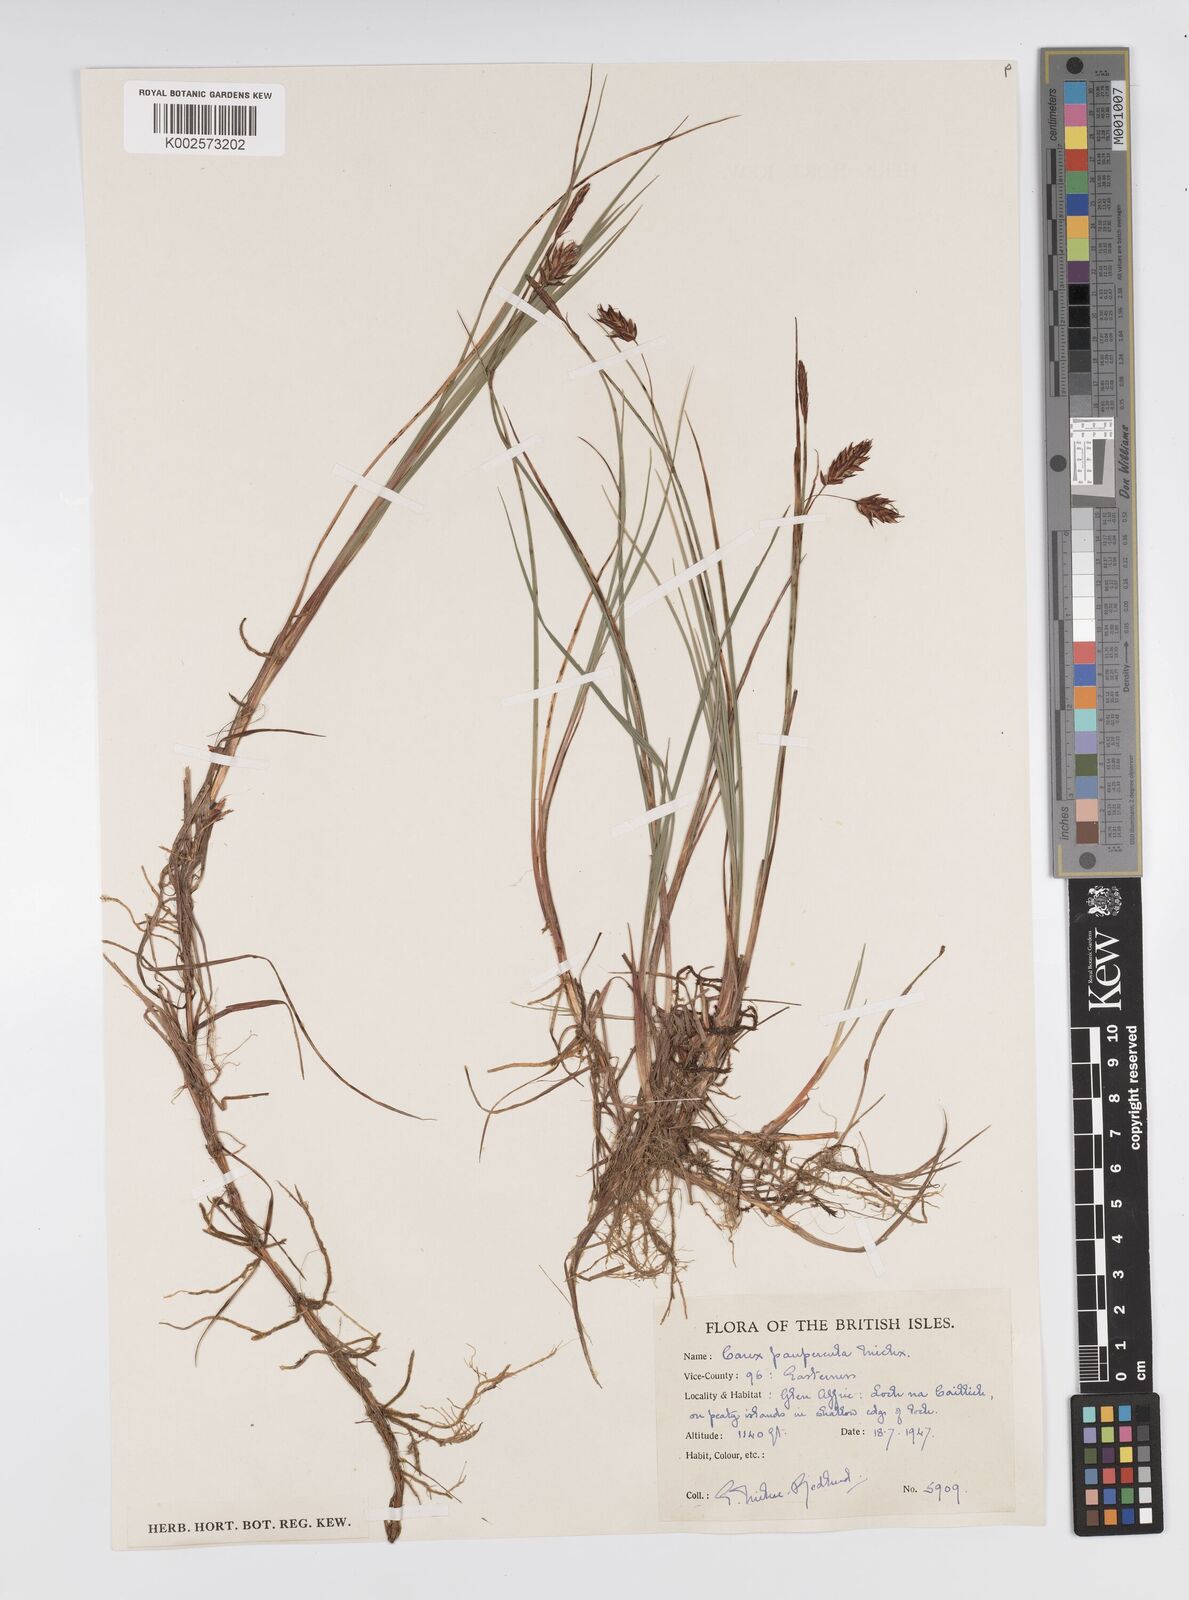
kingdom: Plantae
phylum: Tracheophyta
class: Liliopsida
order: Poales
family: Cyperaceae
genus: Carex
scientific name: Carex magellanica
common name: Bog sedge
